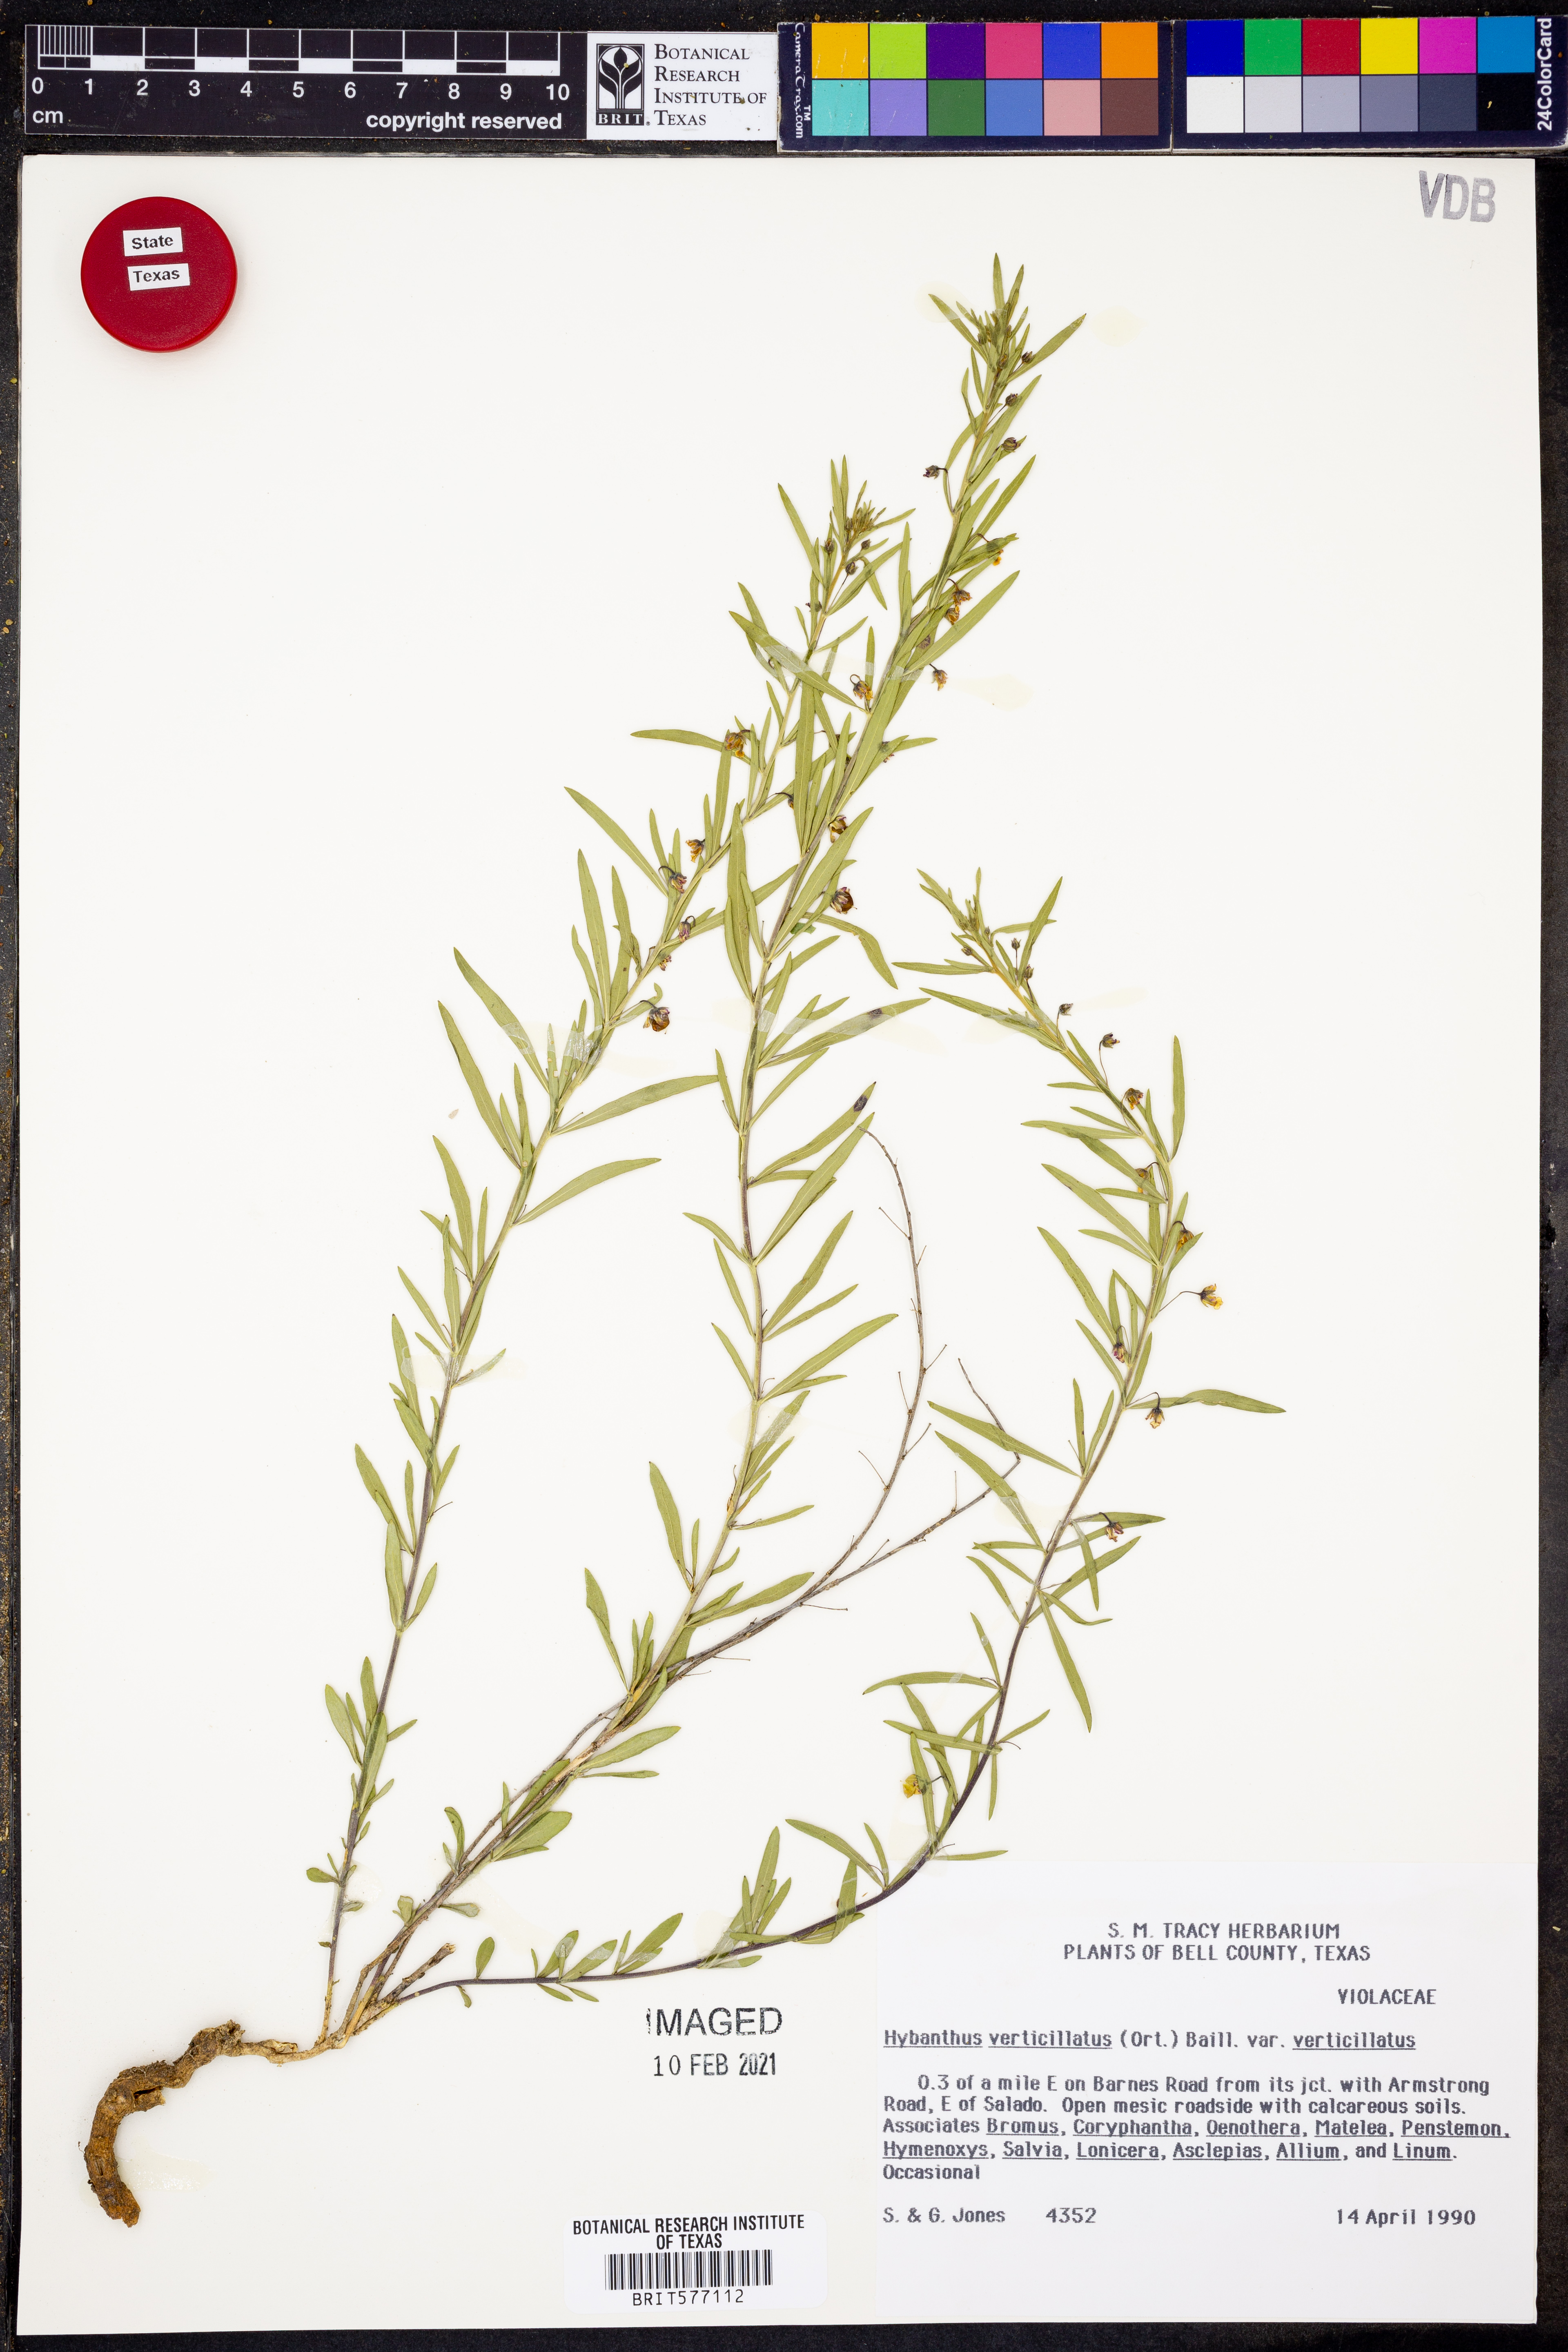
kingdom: Plantae
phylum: Tracheophyta
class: Magnoliopsida
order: Malpighiales
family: Violaceae
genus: Pombalia
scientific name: Pombalia verticillata
